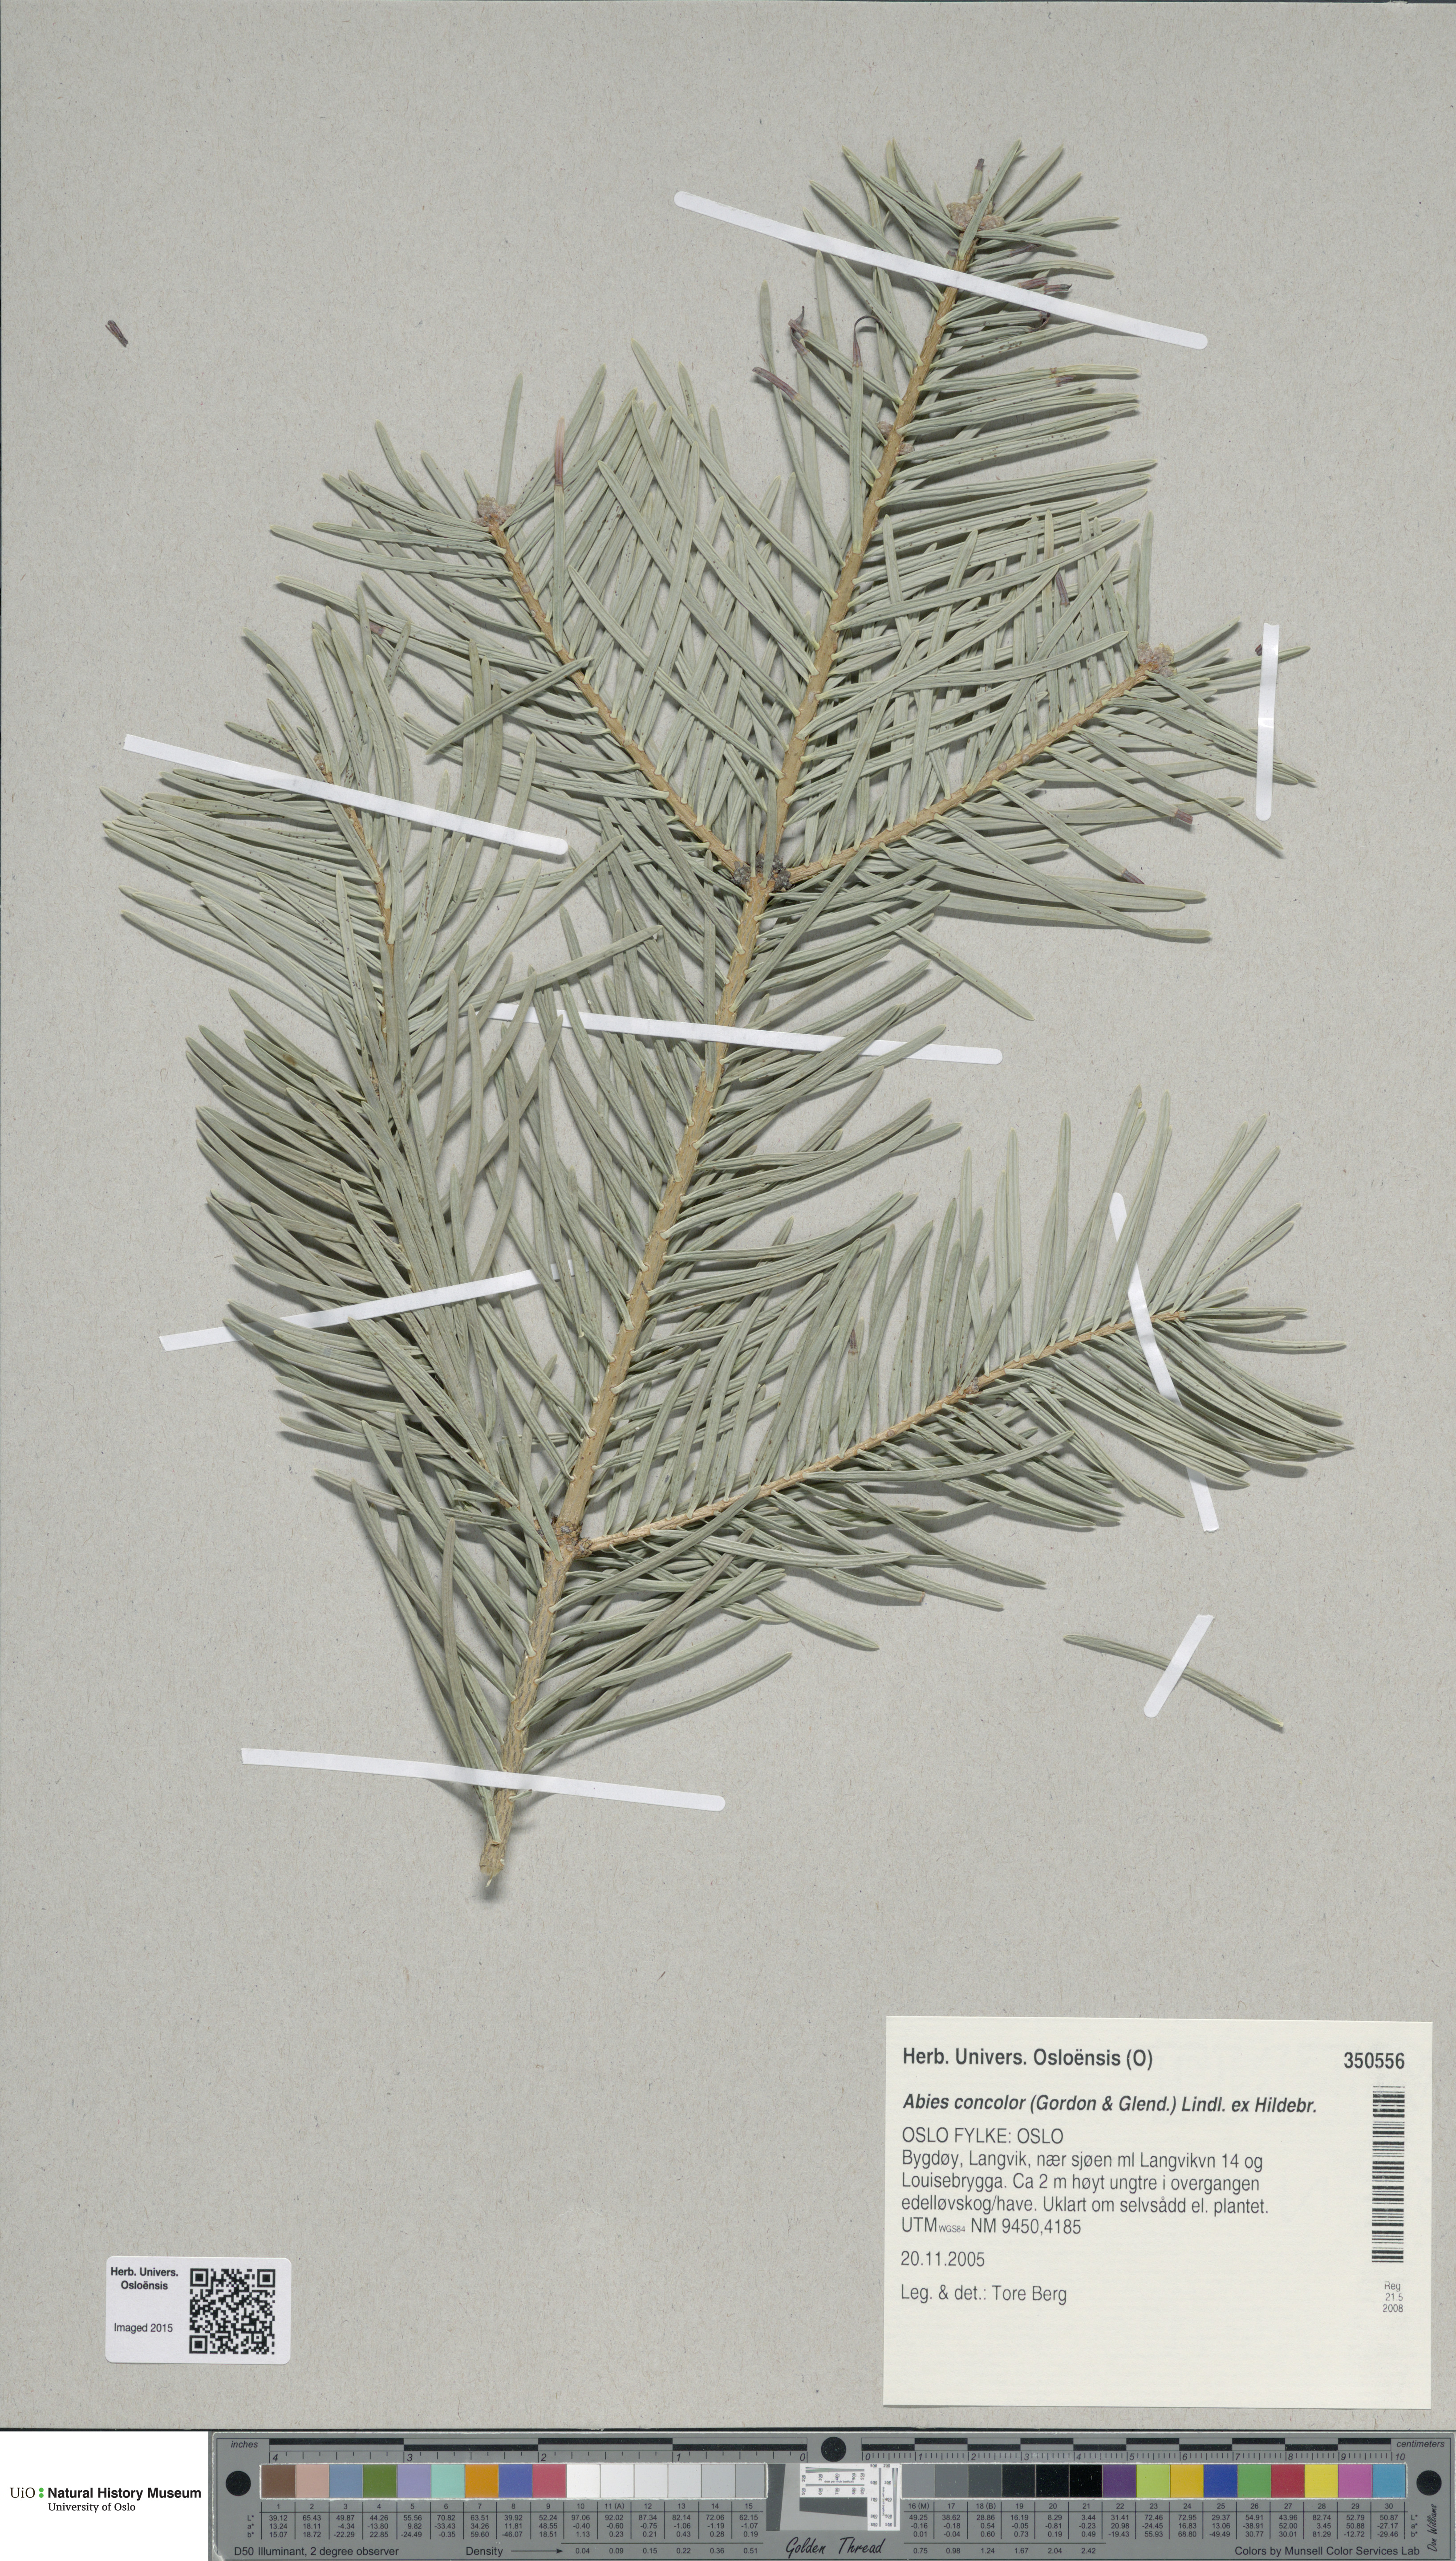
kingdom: Plantae
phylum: Tracheophyta
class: Pinopsida
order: Pinales
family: Pinaceae
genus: Abies
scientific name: Abies concolor
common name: Colorado fir
